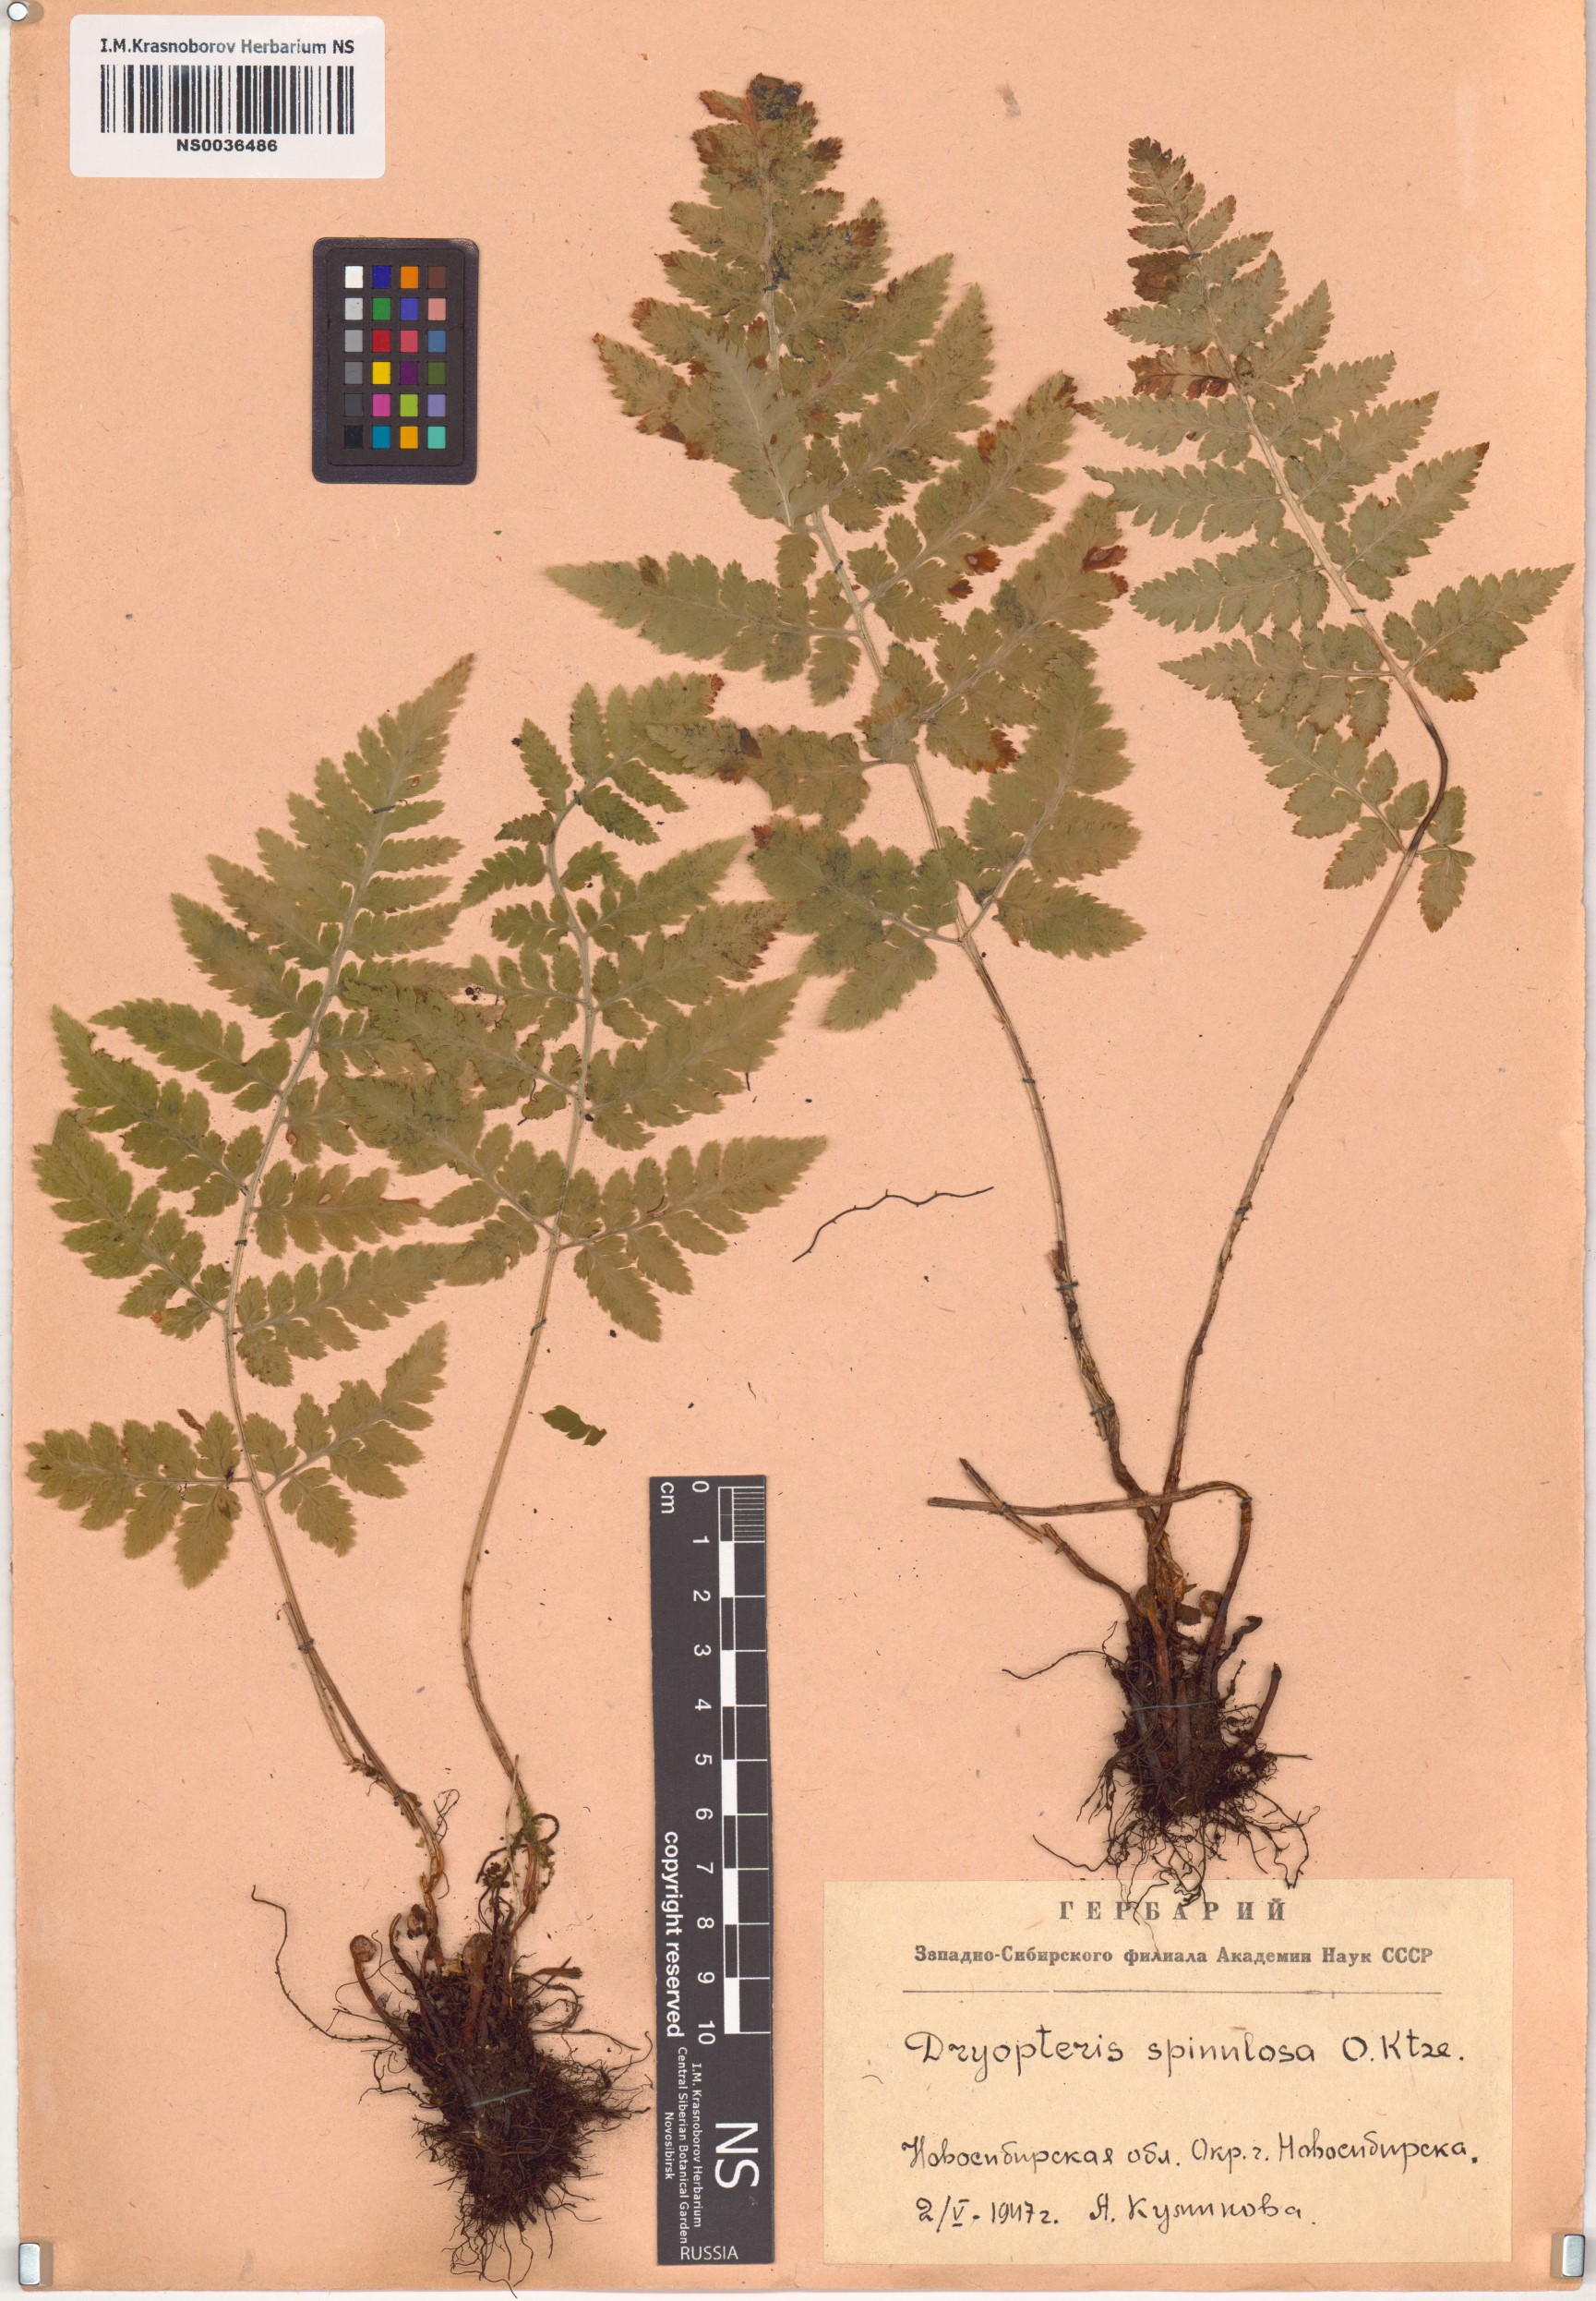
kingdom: Plantae
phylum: Tracheophyta
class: Polypodiopsida
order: Polypodiales
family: Dryopteridaceae
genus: Dryopteris
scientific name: Dryopteris carthusiana
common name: Narrow buckler-fern
